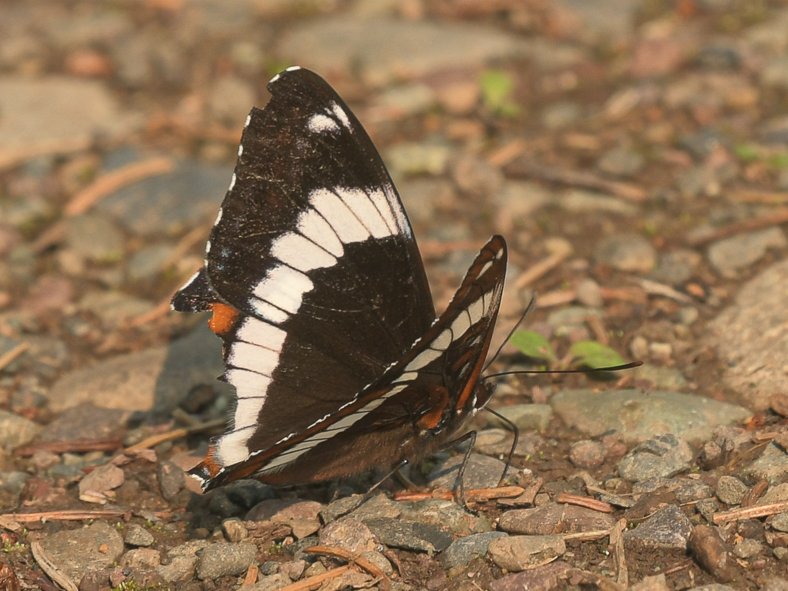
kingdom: Animalia
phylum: Arthropoda
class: Insecta
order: Lepidoptera
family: Nymphalidae
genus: Limenitis
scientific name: Limenitis arthemis
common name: Red-spotted Admiral
